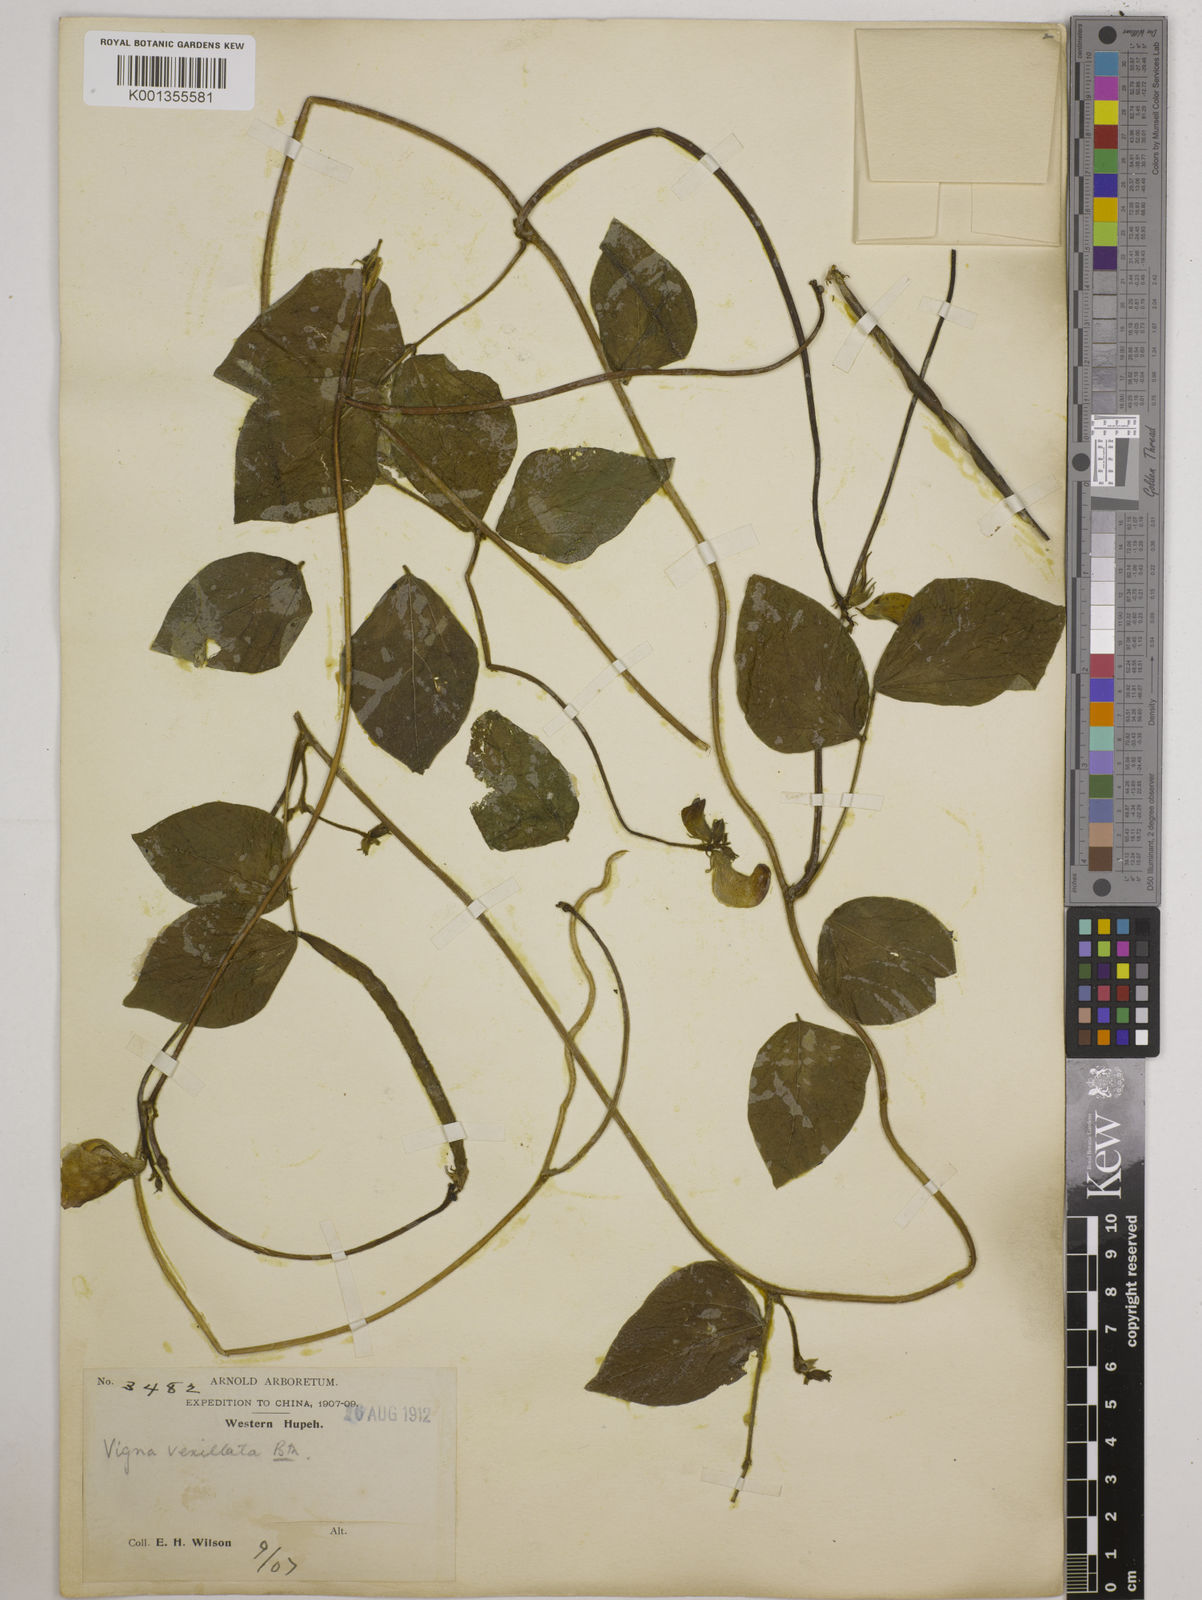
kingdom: Plantae
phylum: Tracheophyta
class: Magnoliopsida
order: Fabales
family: Fabaceae
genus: Vigna
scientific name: Vigna vexillata
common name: Zombi pea
